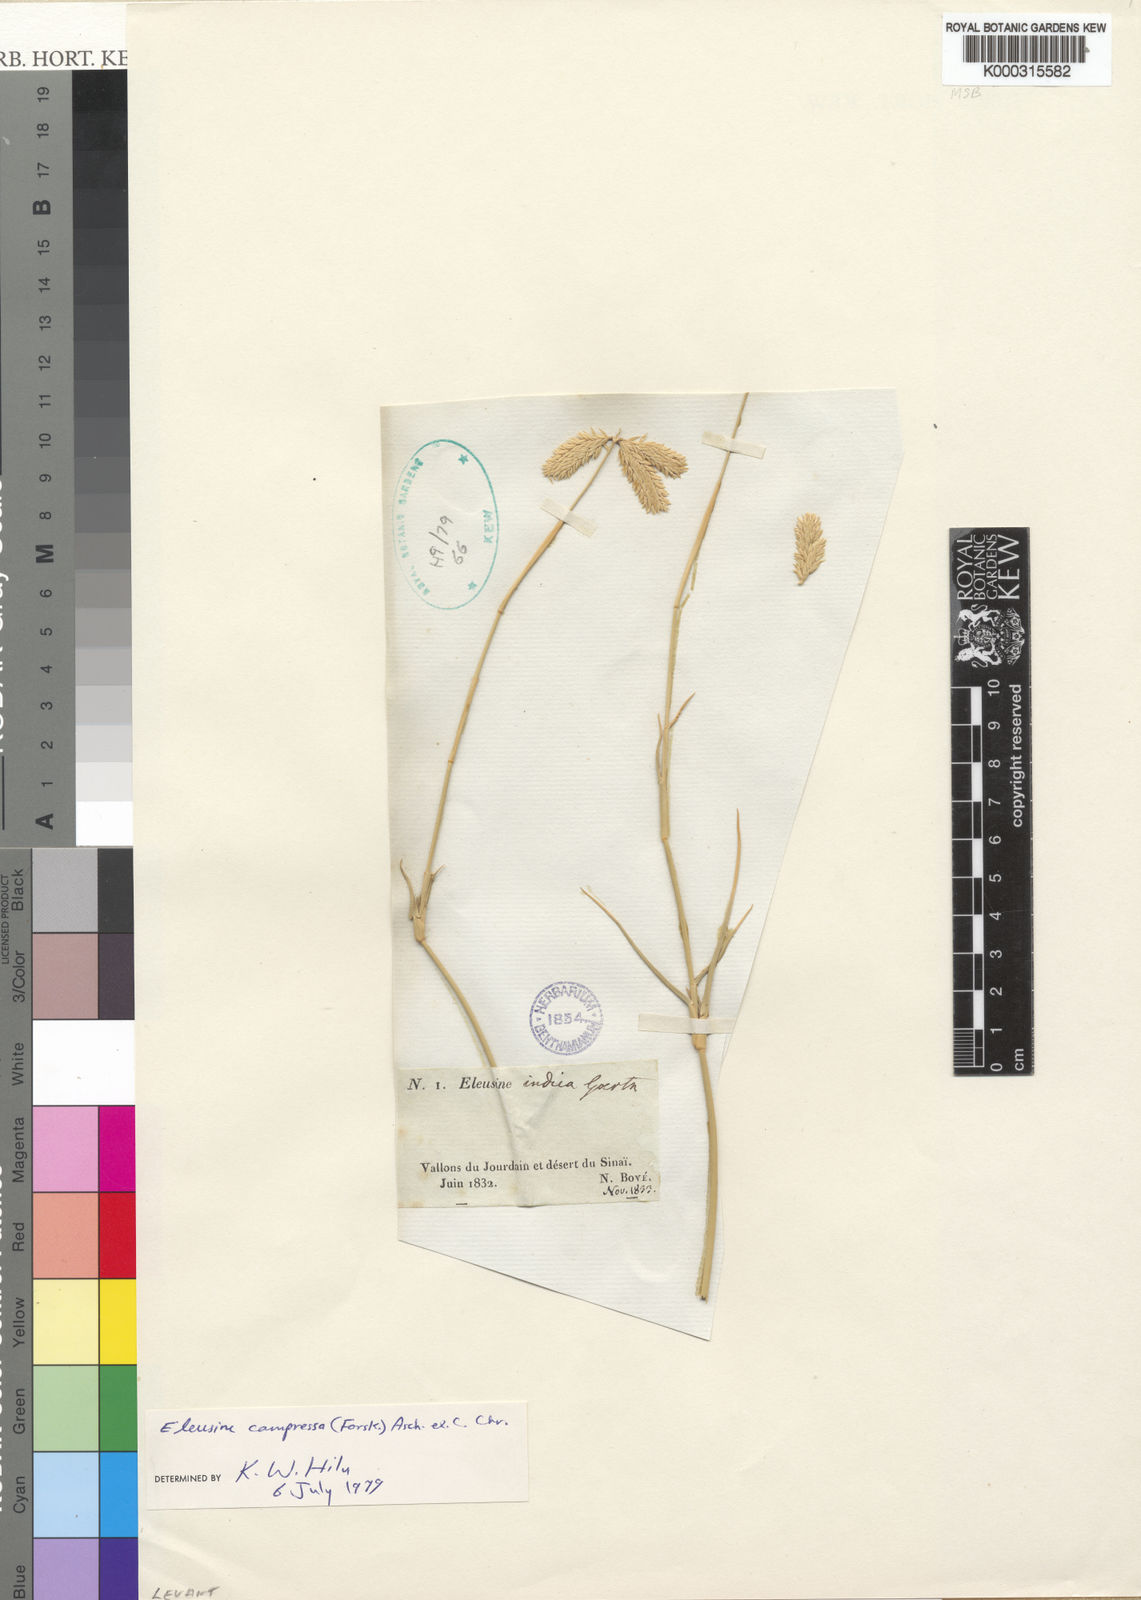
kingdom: Plantae
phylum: Tracheophyta
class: Liliopsida
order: Poales
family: Poaceae
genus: Chloris
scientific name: Chloris flagellifera
